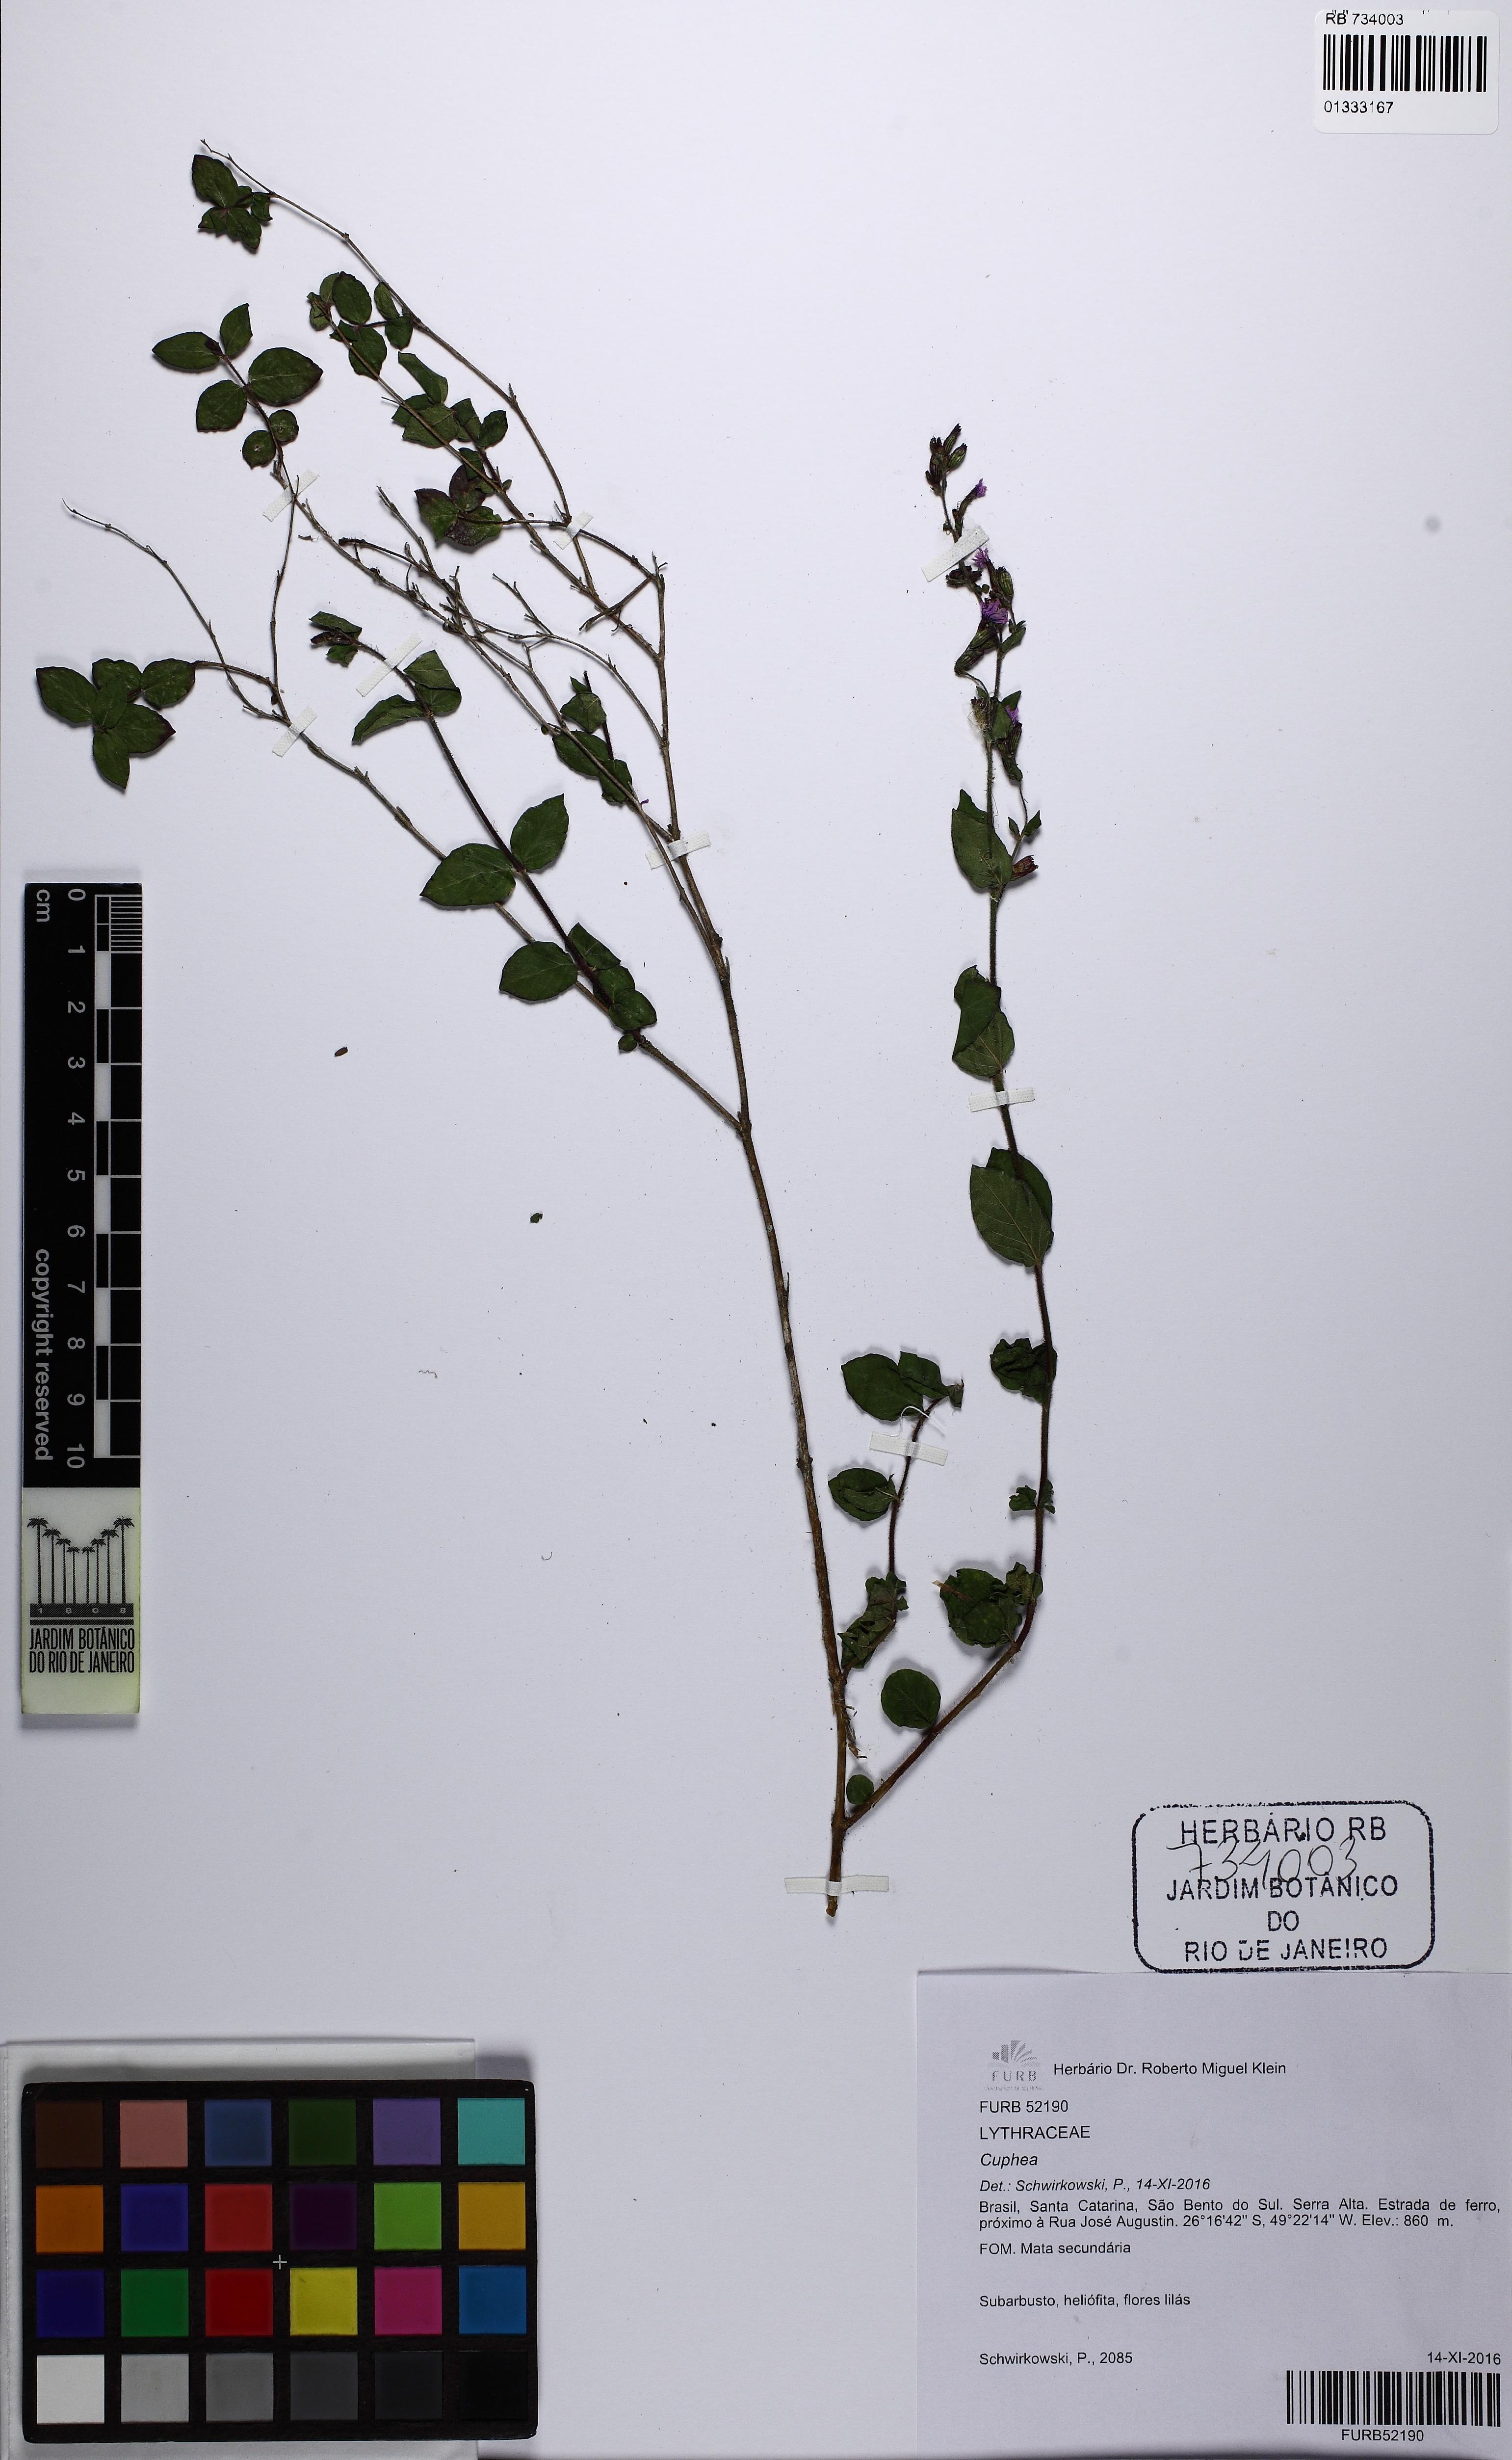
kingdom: Plantae
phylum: Tracheophyta
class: Magnoliopsida
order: Myrtales
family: Lythraceae
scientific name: Lythraceae
